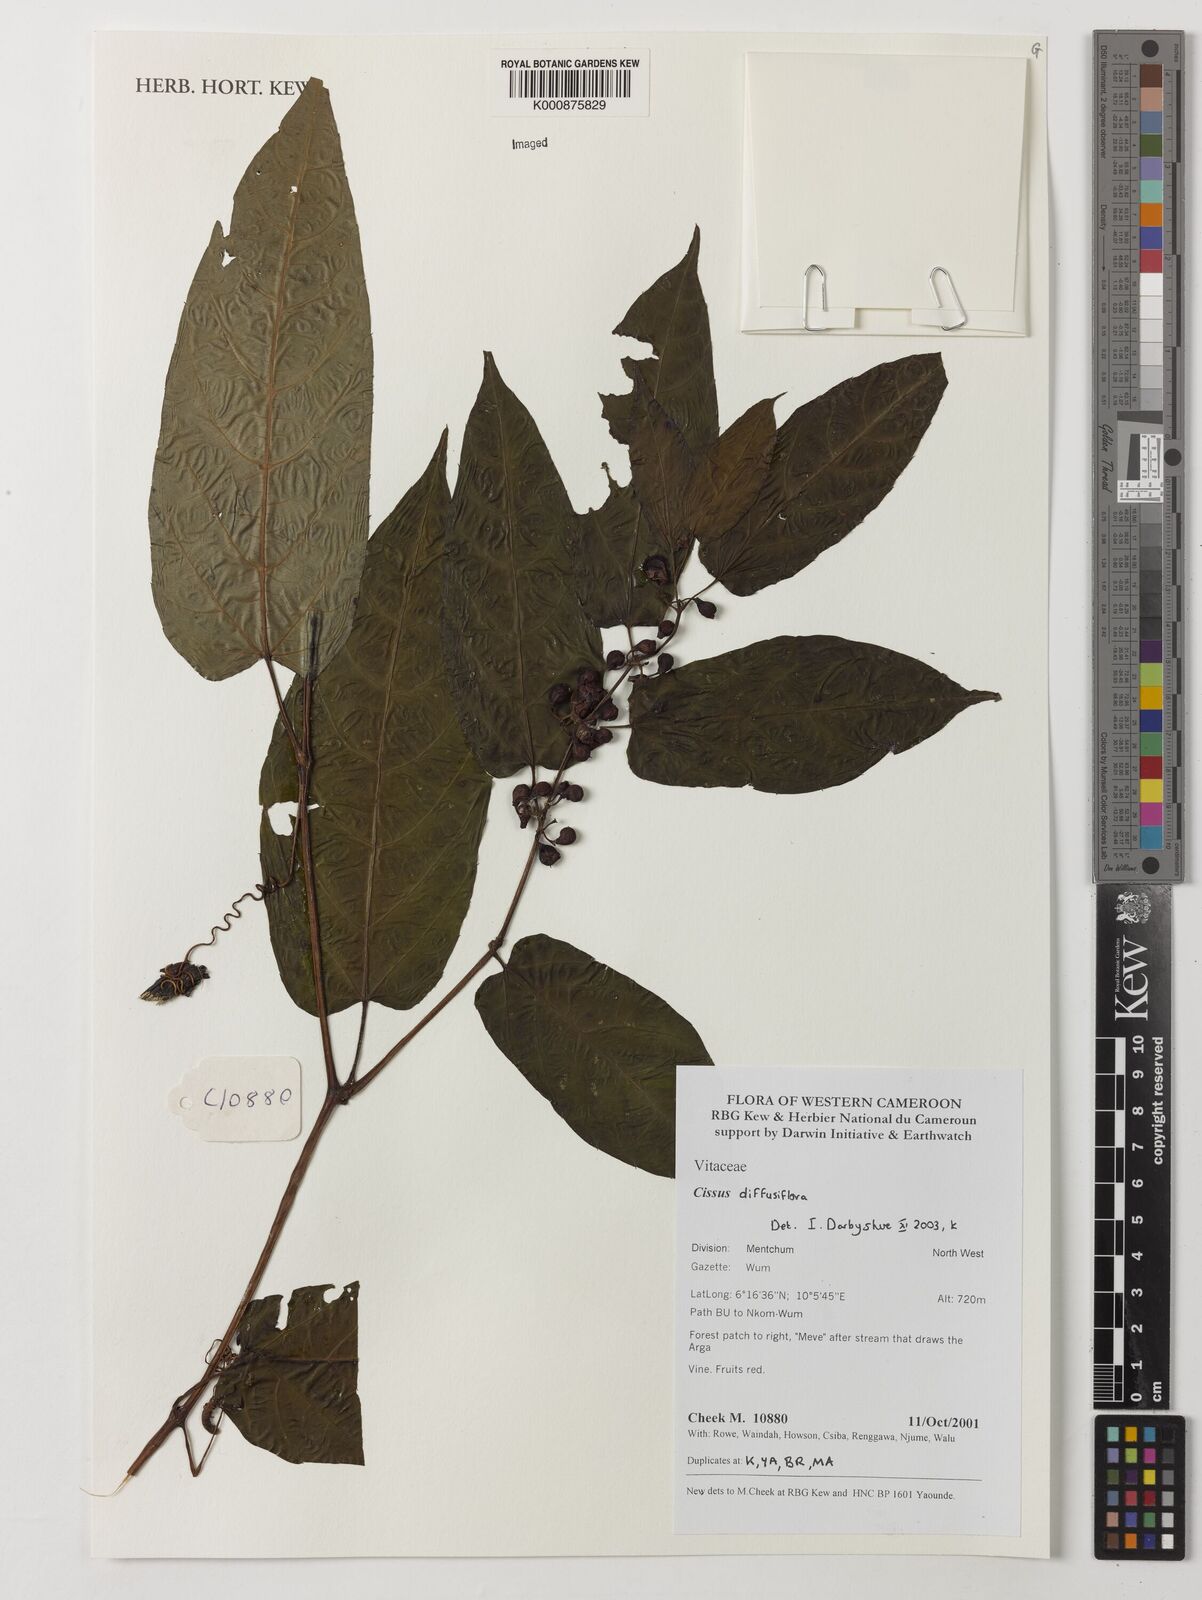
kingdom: Plantae
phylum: Tracheophyta
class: Magnoliopsida
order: Vitales
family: Vitaceae
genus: Cissus
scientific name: Cissus diffusiflora
